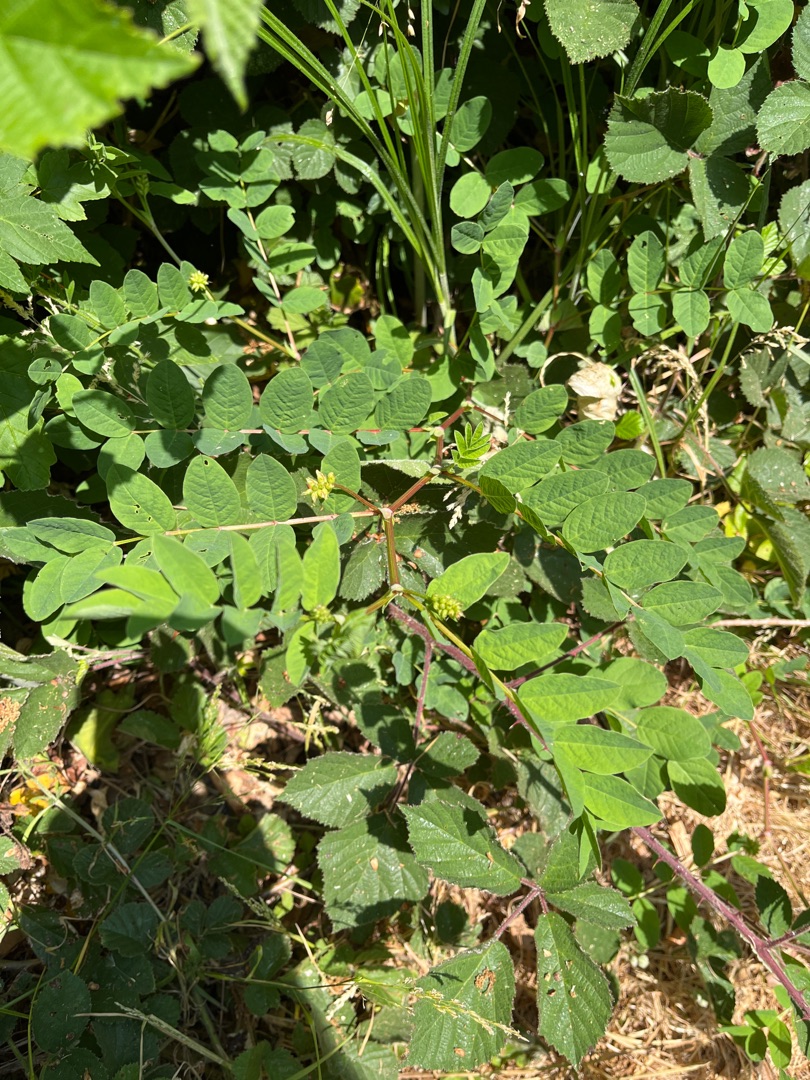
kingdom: Plantae
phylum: Tracheophyta
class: Magnoliopsida
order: Fabales
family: Fabaceae
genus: Astragalus
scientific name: Astragalus glycyphyllos
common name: Sød astragel
